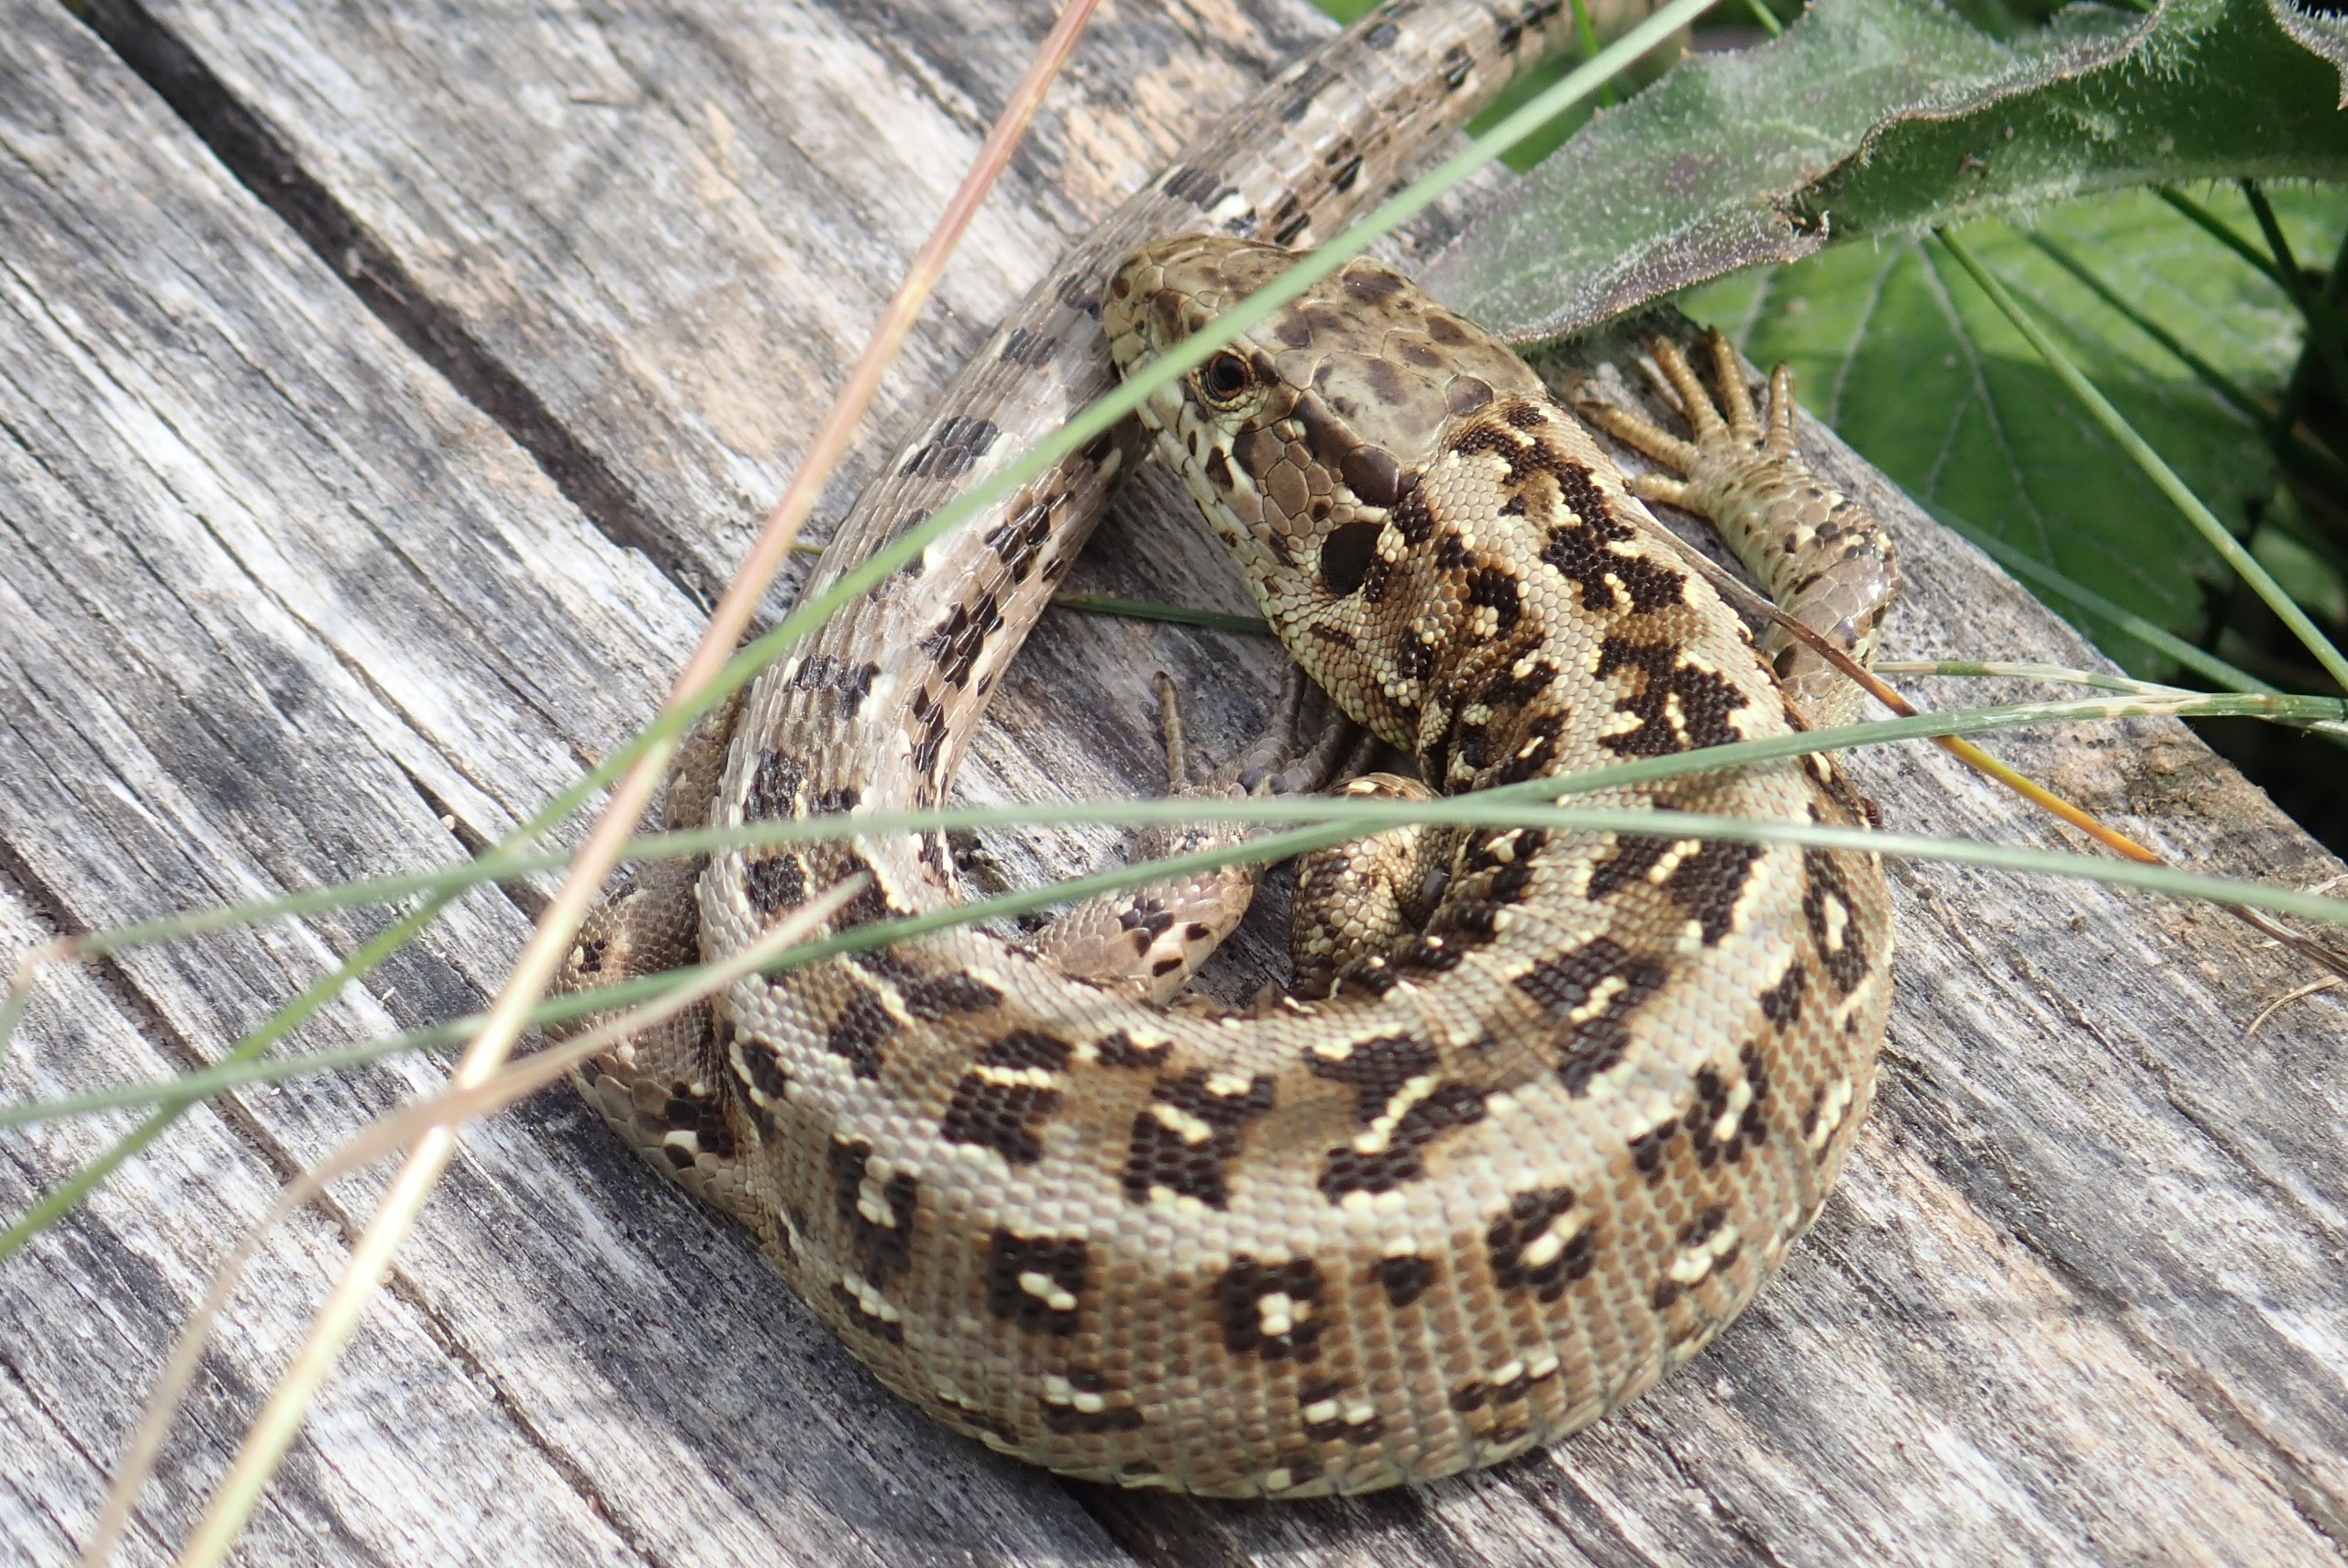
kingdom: Animalia
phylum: Chordata
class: Squamata
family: Lacertidae
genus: Lacerta
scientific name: Lacerta agilis
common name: Markfirben
